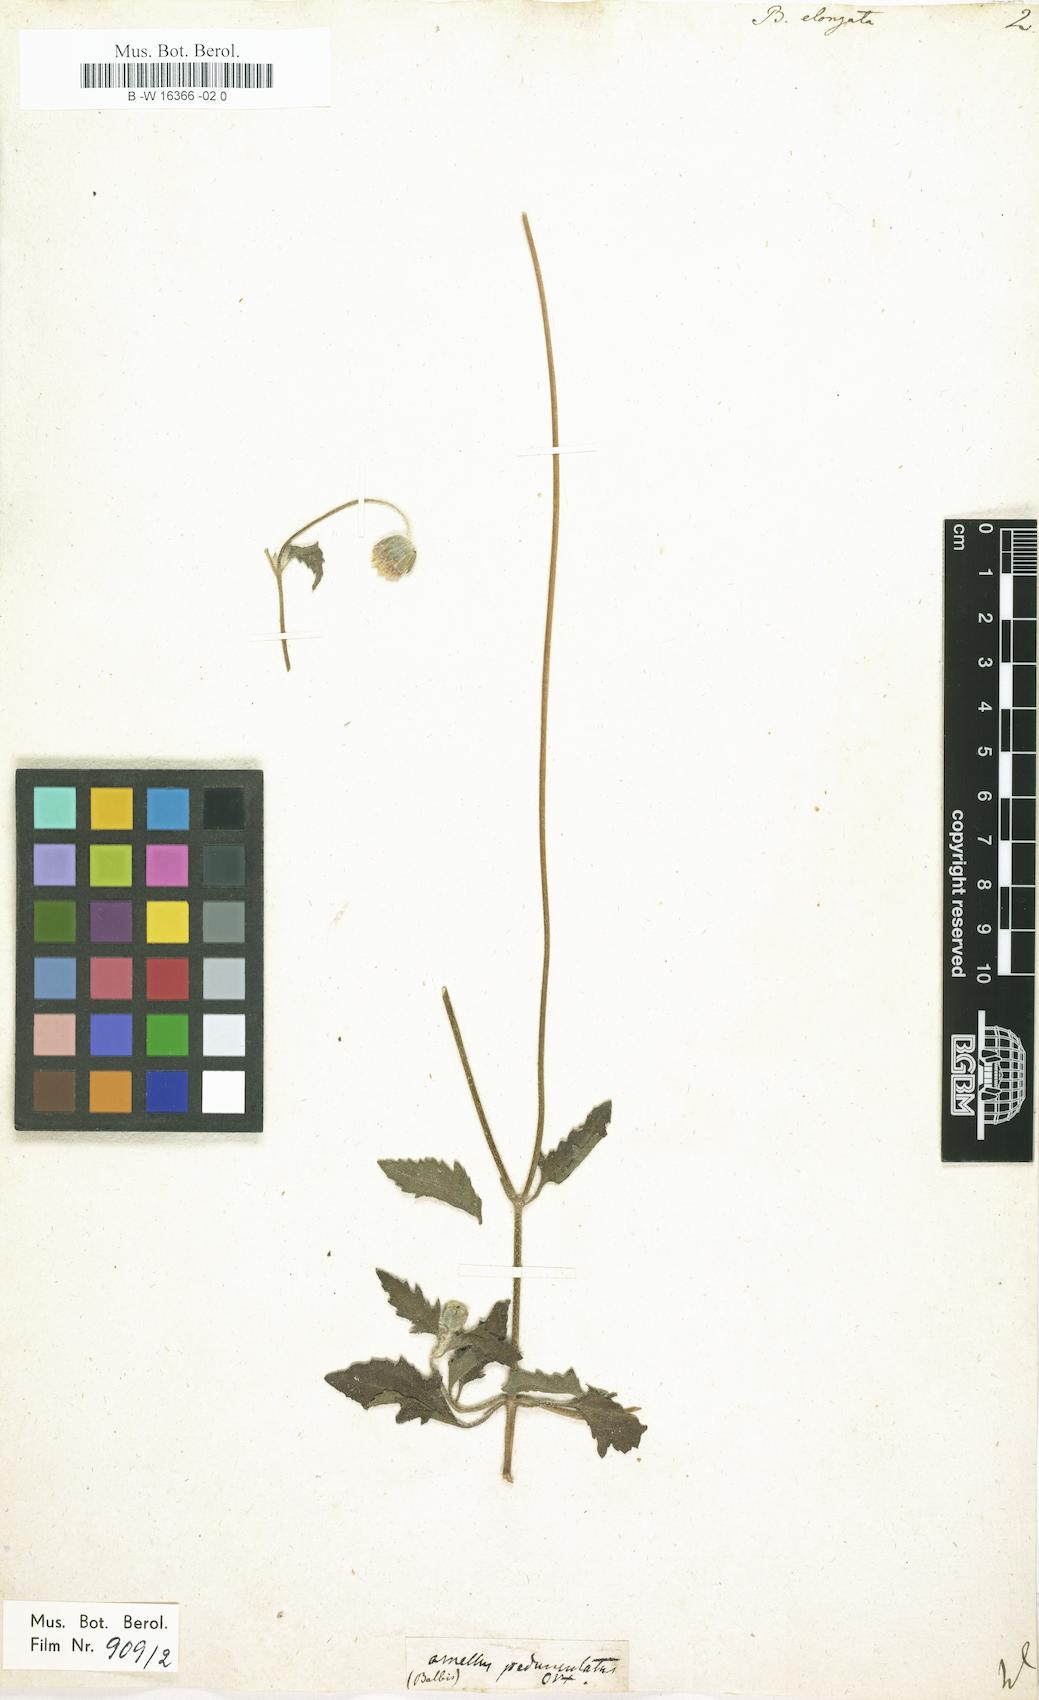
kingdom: Plantae
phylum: Tracheophyta
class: Magnoliopsida
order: Asterales
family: Asteraceae
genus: Tridax
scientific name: Tridax procumbens
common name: Coatbuttons
